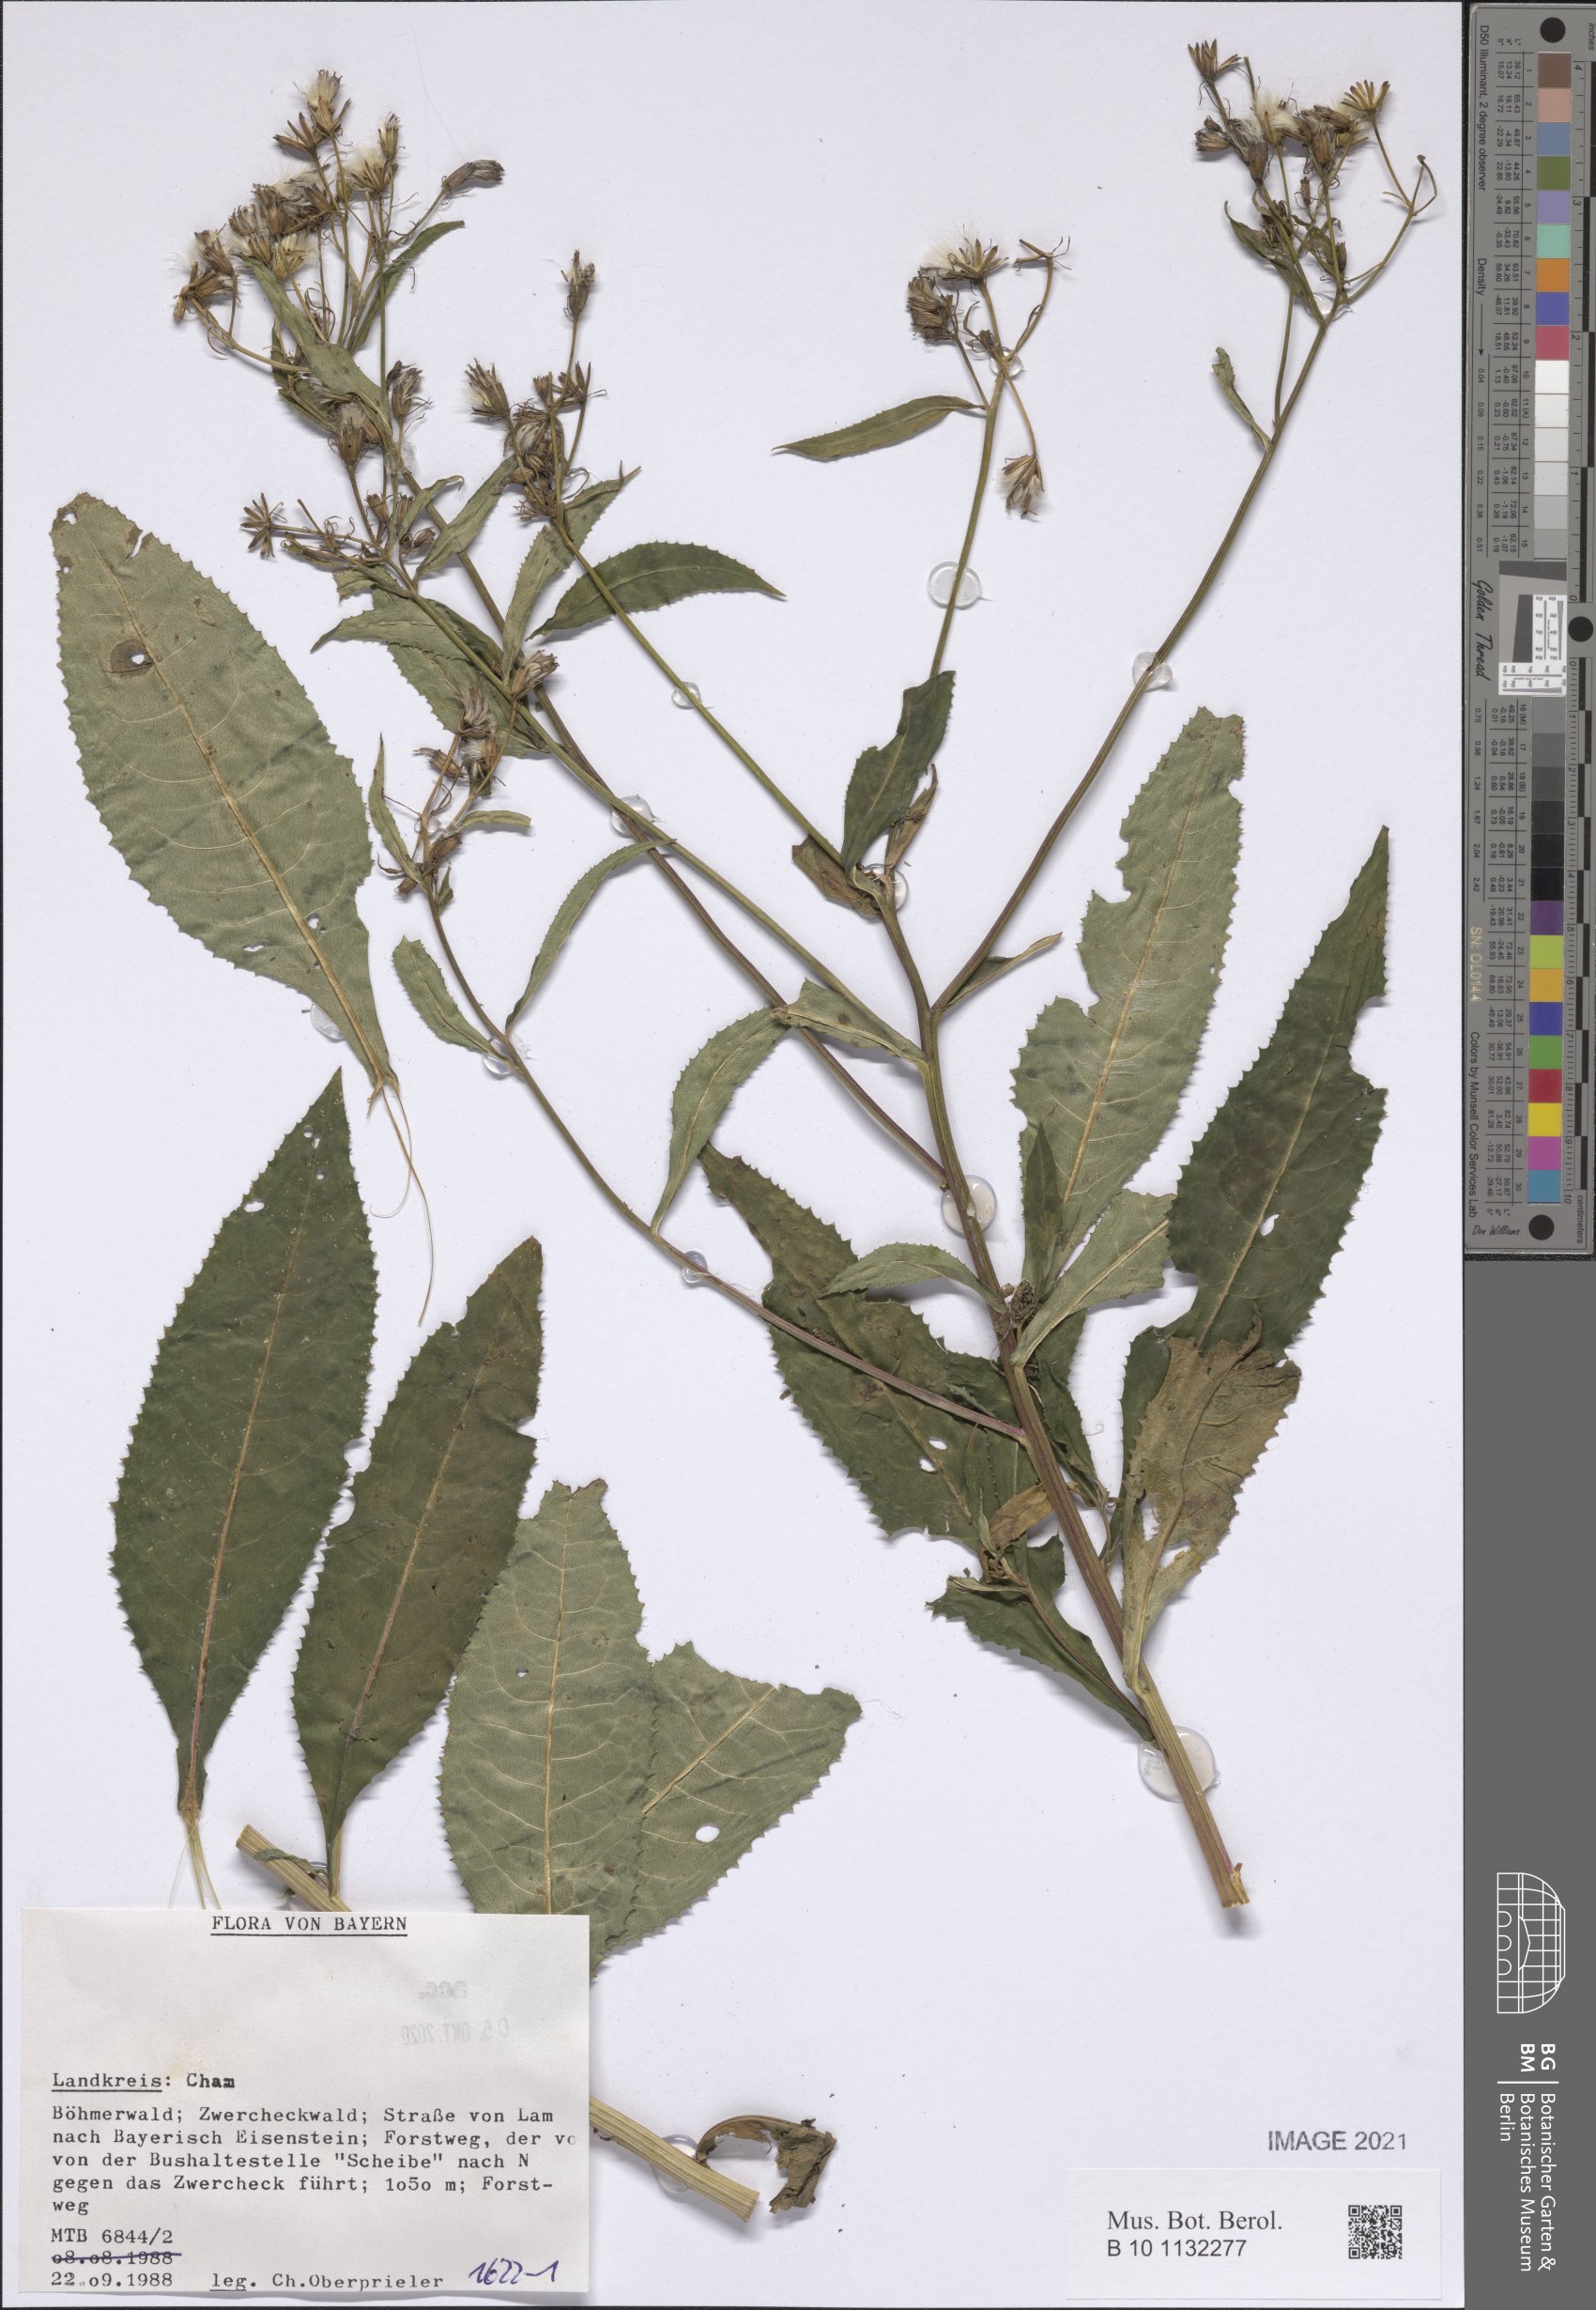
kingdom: Plantae
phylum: Tracheophyta
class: Magnoliopsida
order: Asterales
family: Asteraceae
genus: Senecio
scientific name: Senecio
